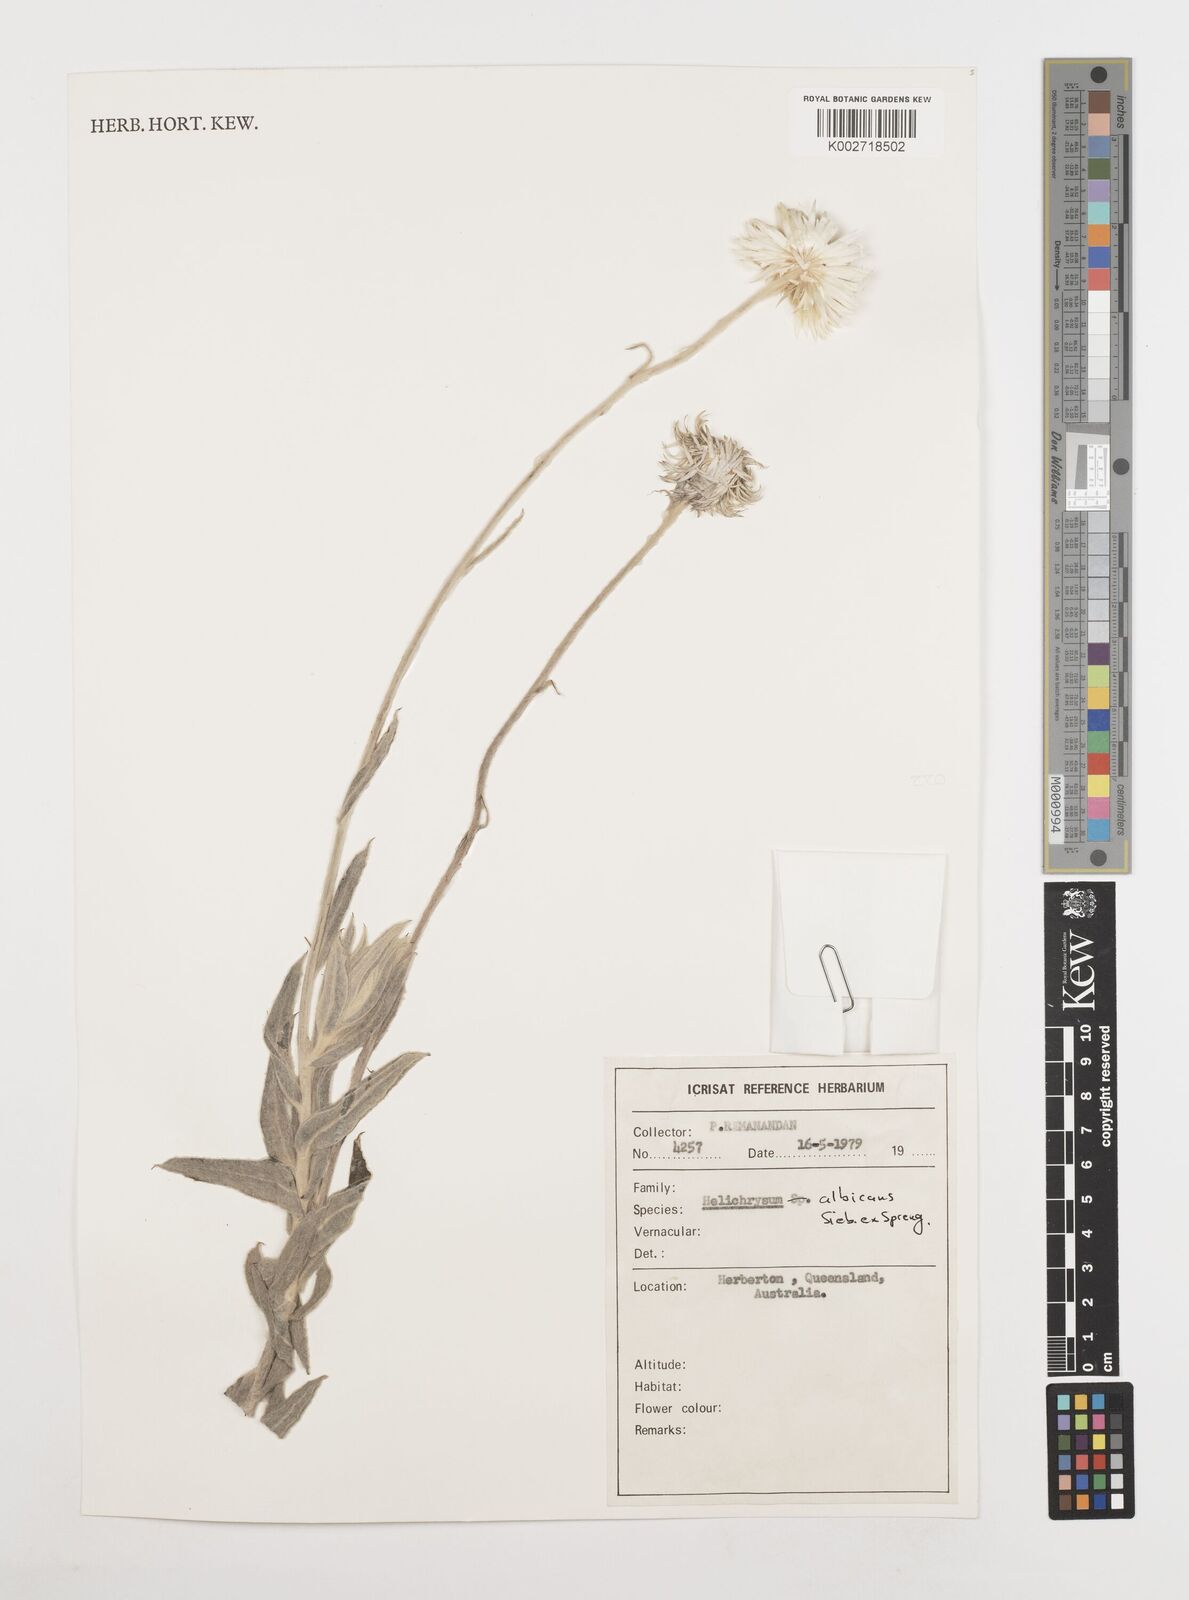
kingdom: Plantae
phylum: Tracheophyta
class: Magnoliopsida
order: Asterales
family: Asteraceae
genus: Leucozoma
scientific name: Leucozoma elatum
